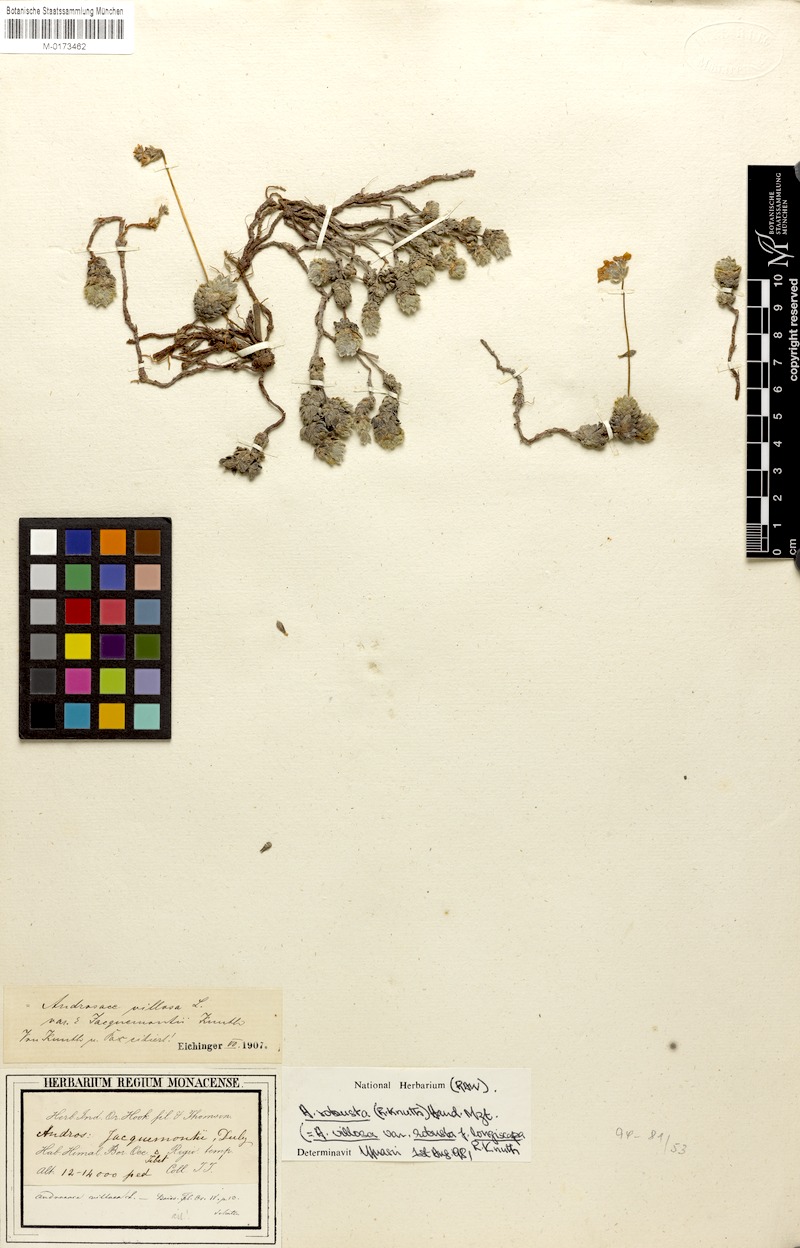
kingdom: Plantae
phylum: Tracheophyta
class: Magnoliopsida
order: Ericales
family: Primulaceae
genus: Androsace
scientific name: Androsace jacquemontii
